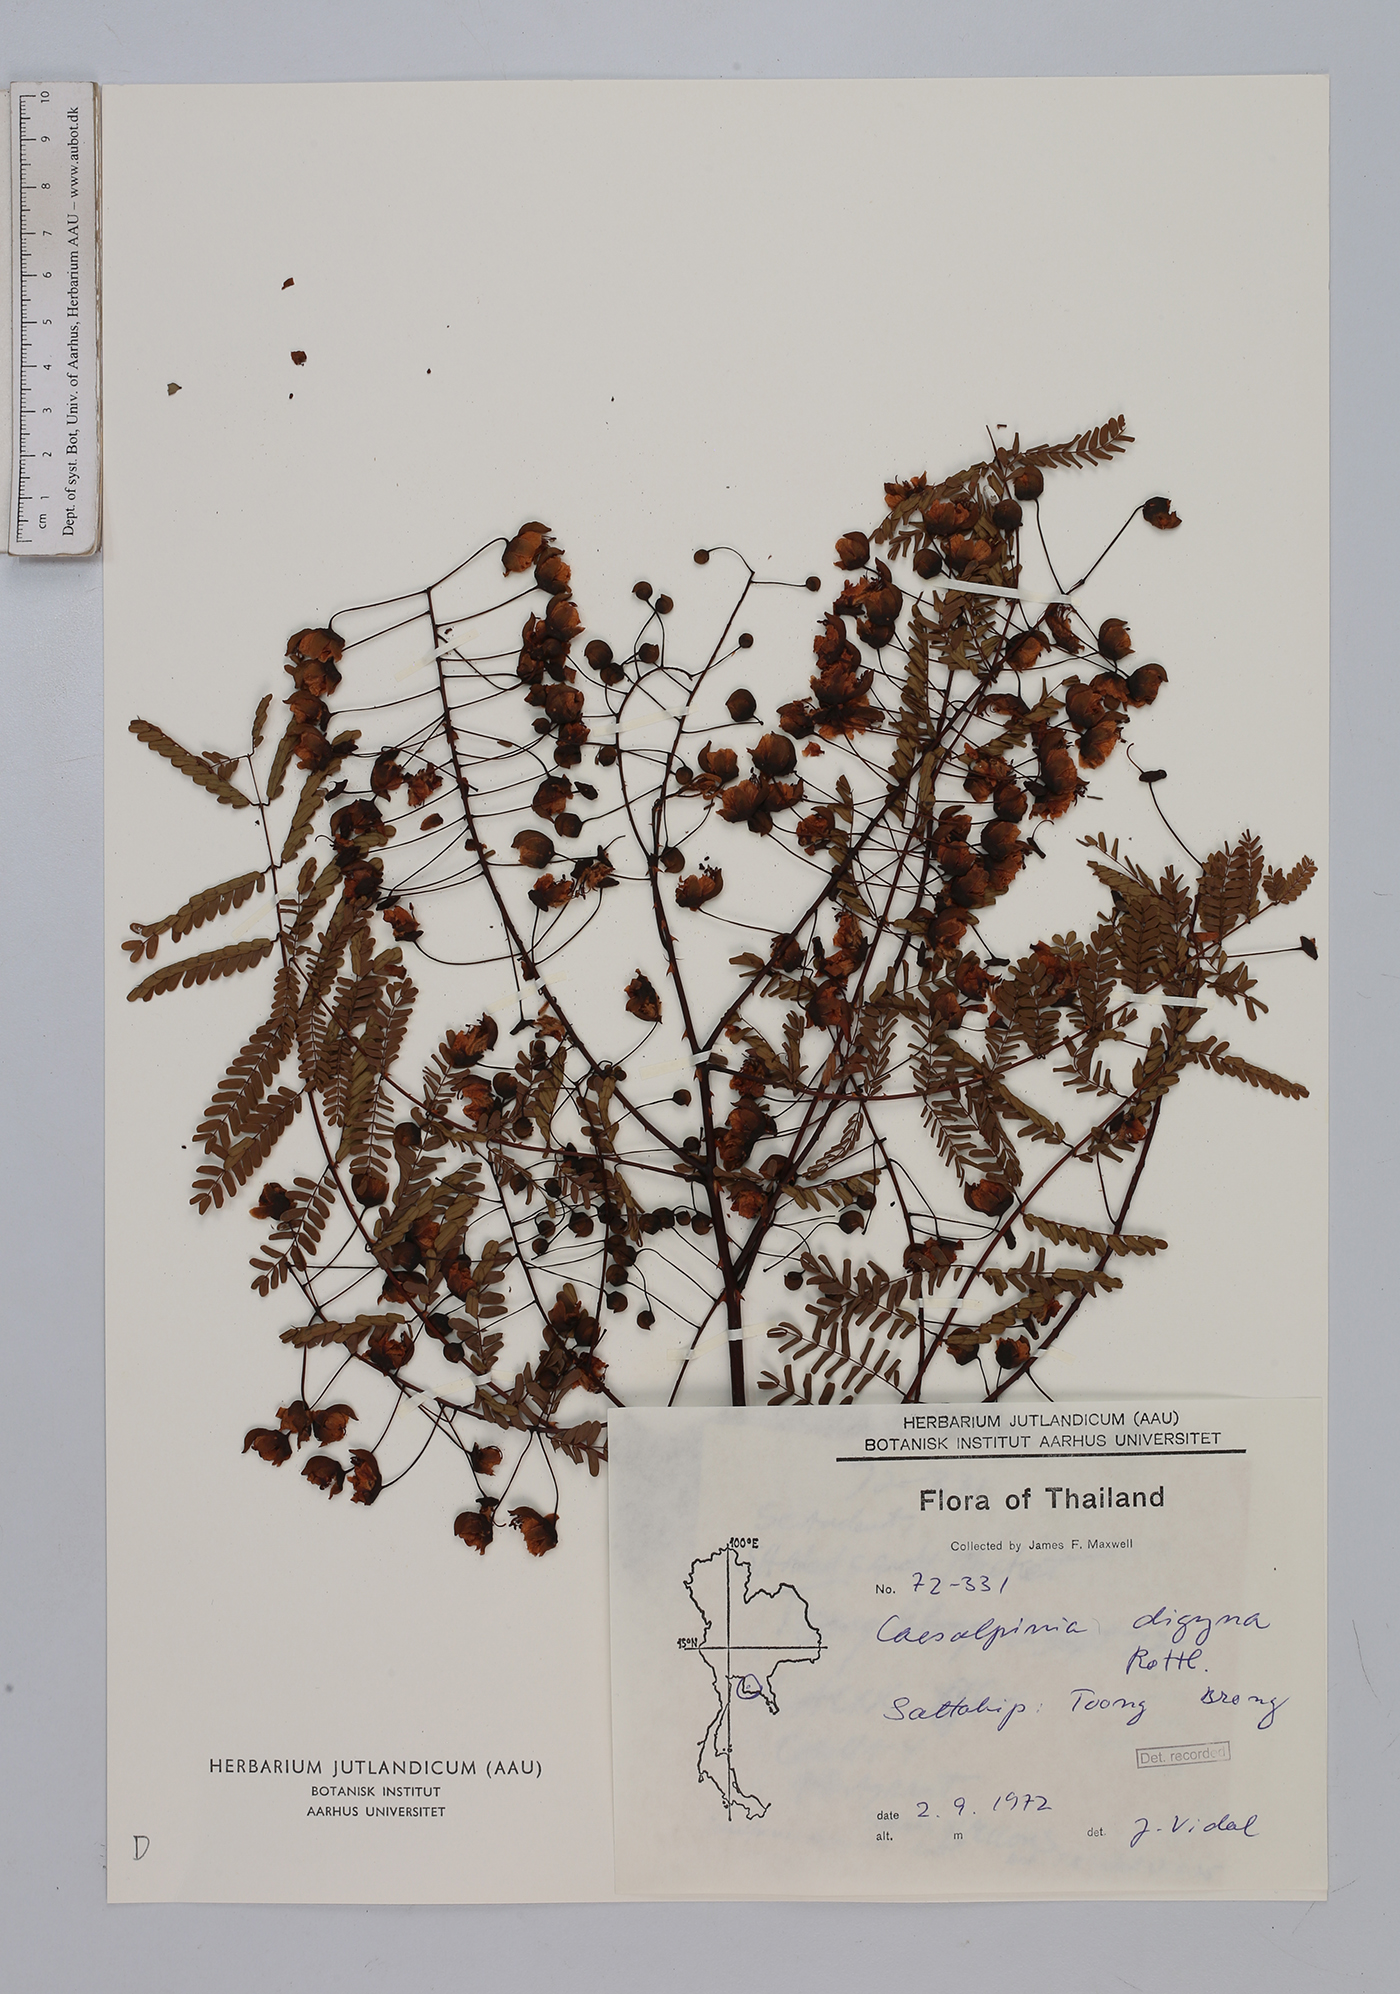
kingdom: Plantae
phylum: Tracheophyta
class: Magnoliopsida
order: Fabales
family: Fabaceae
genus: Moullava
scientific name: Moullava digyna
